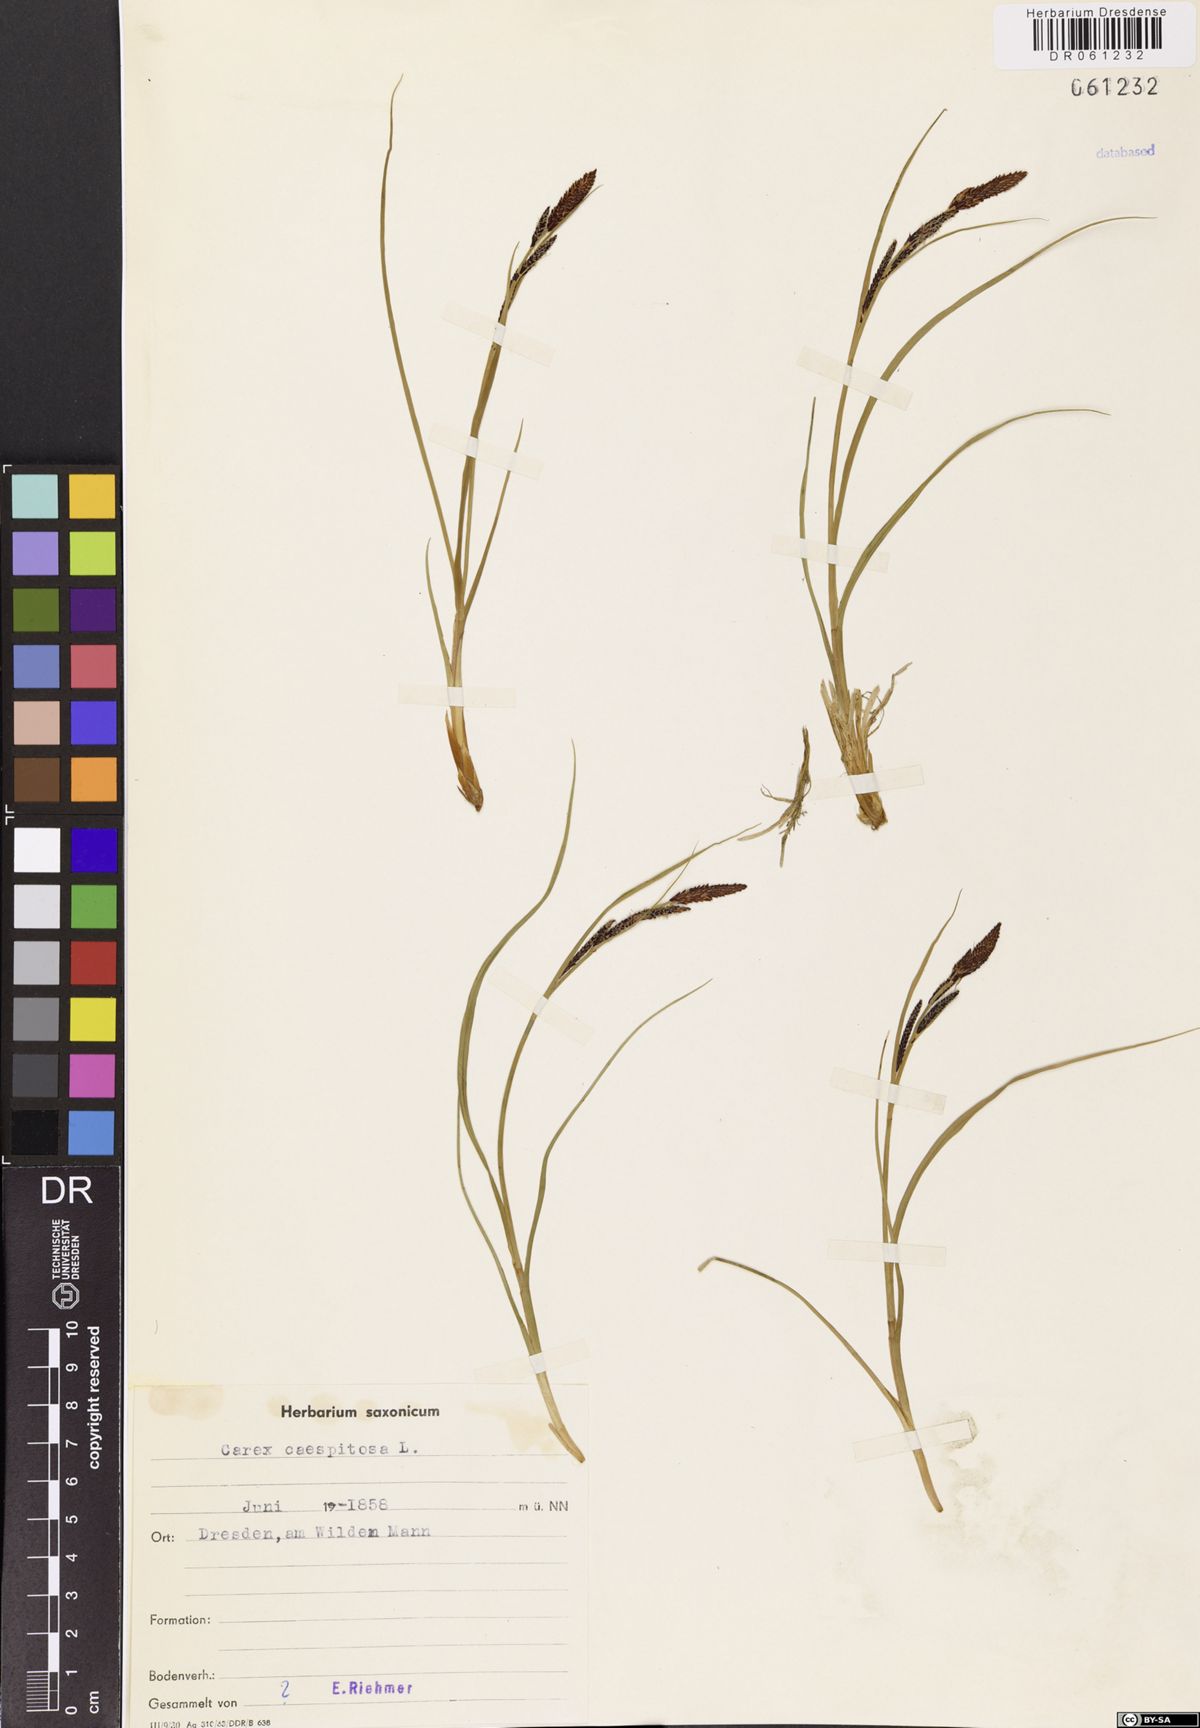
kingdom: Plantae
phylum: Tracheophyta
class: Liliopsida
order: Poales
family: Cyperaceae
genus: Carex
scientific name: Carex cespitosa
